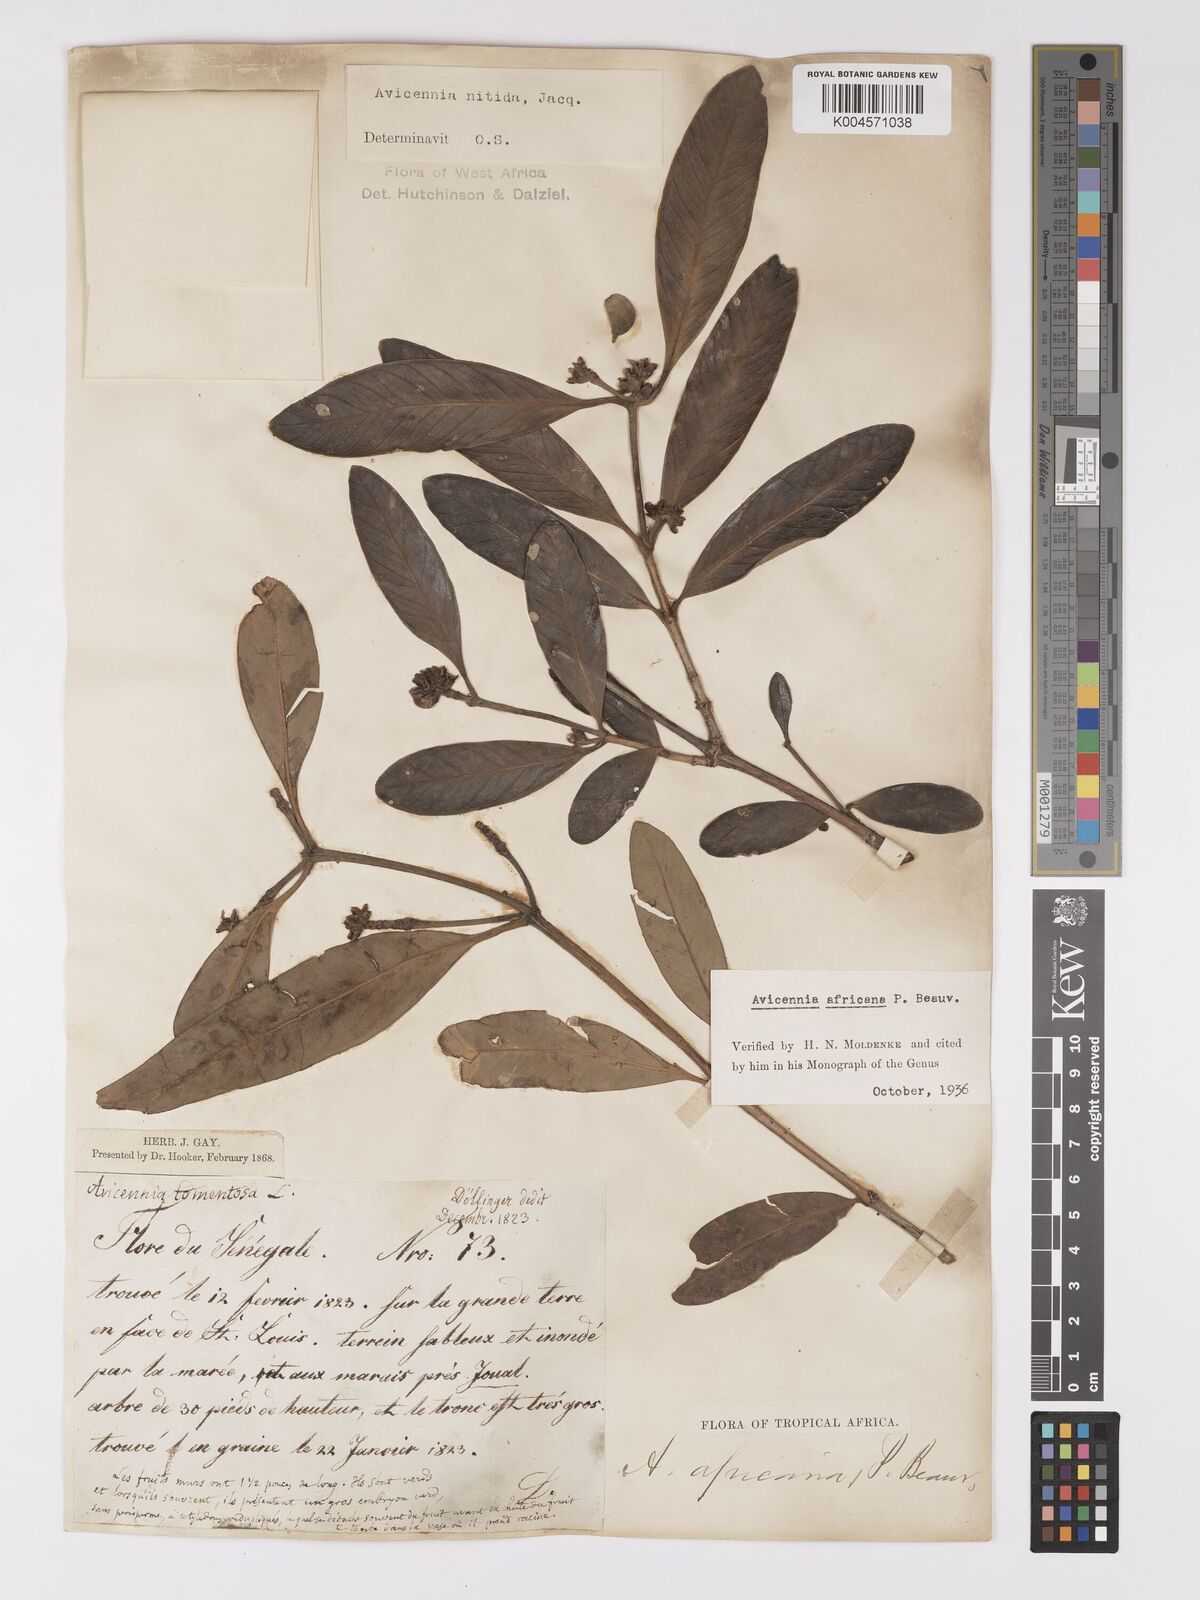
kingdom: Plantae
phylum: Tracheophyta
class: Magnoliopsida
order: Lamiales
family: Acanthaceae
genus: Avicennia
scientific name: Avicennia germinans
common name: Black mangrove
